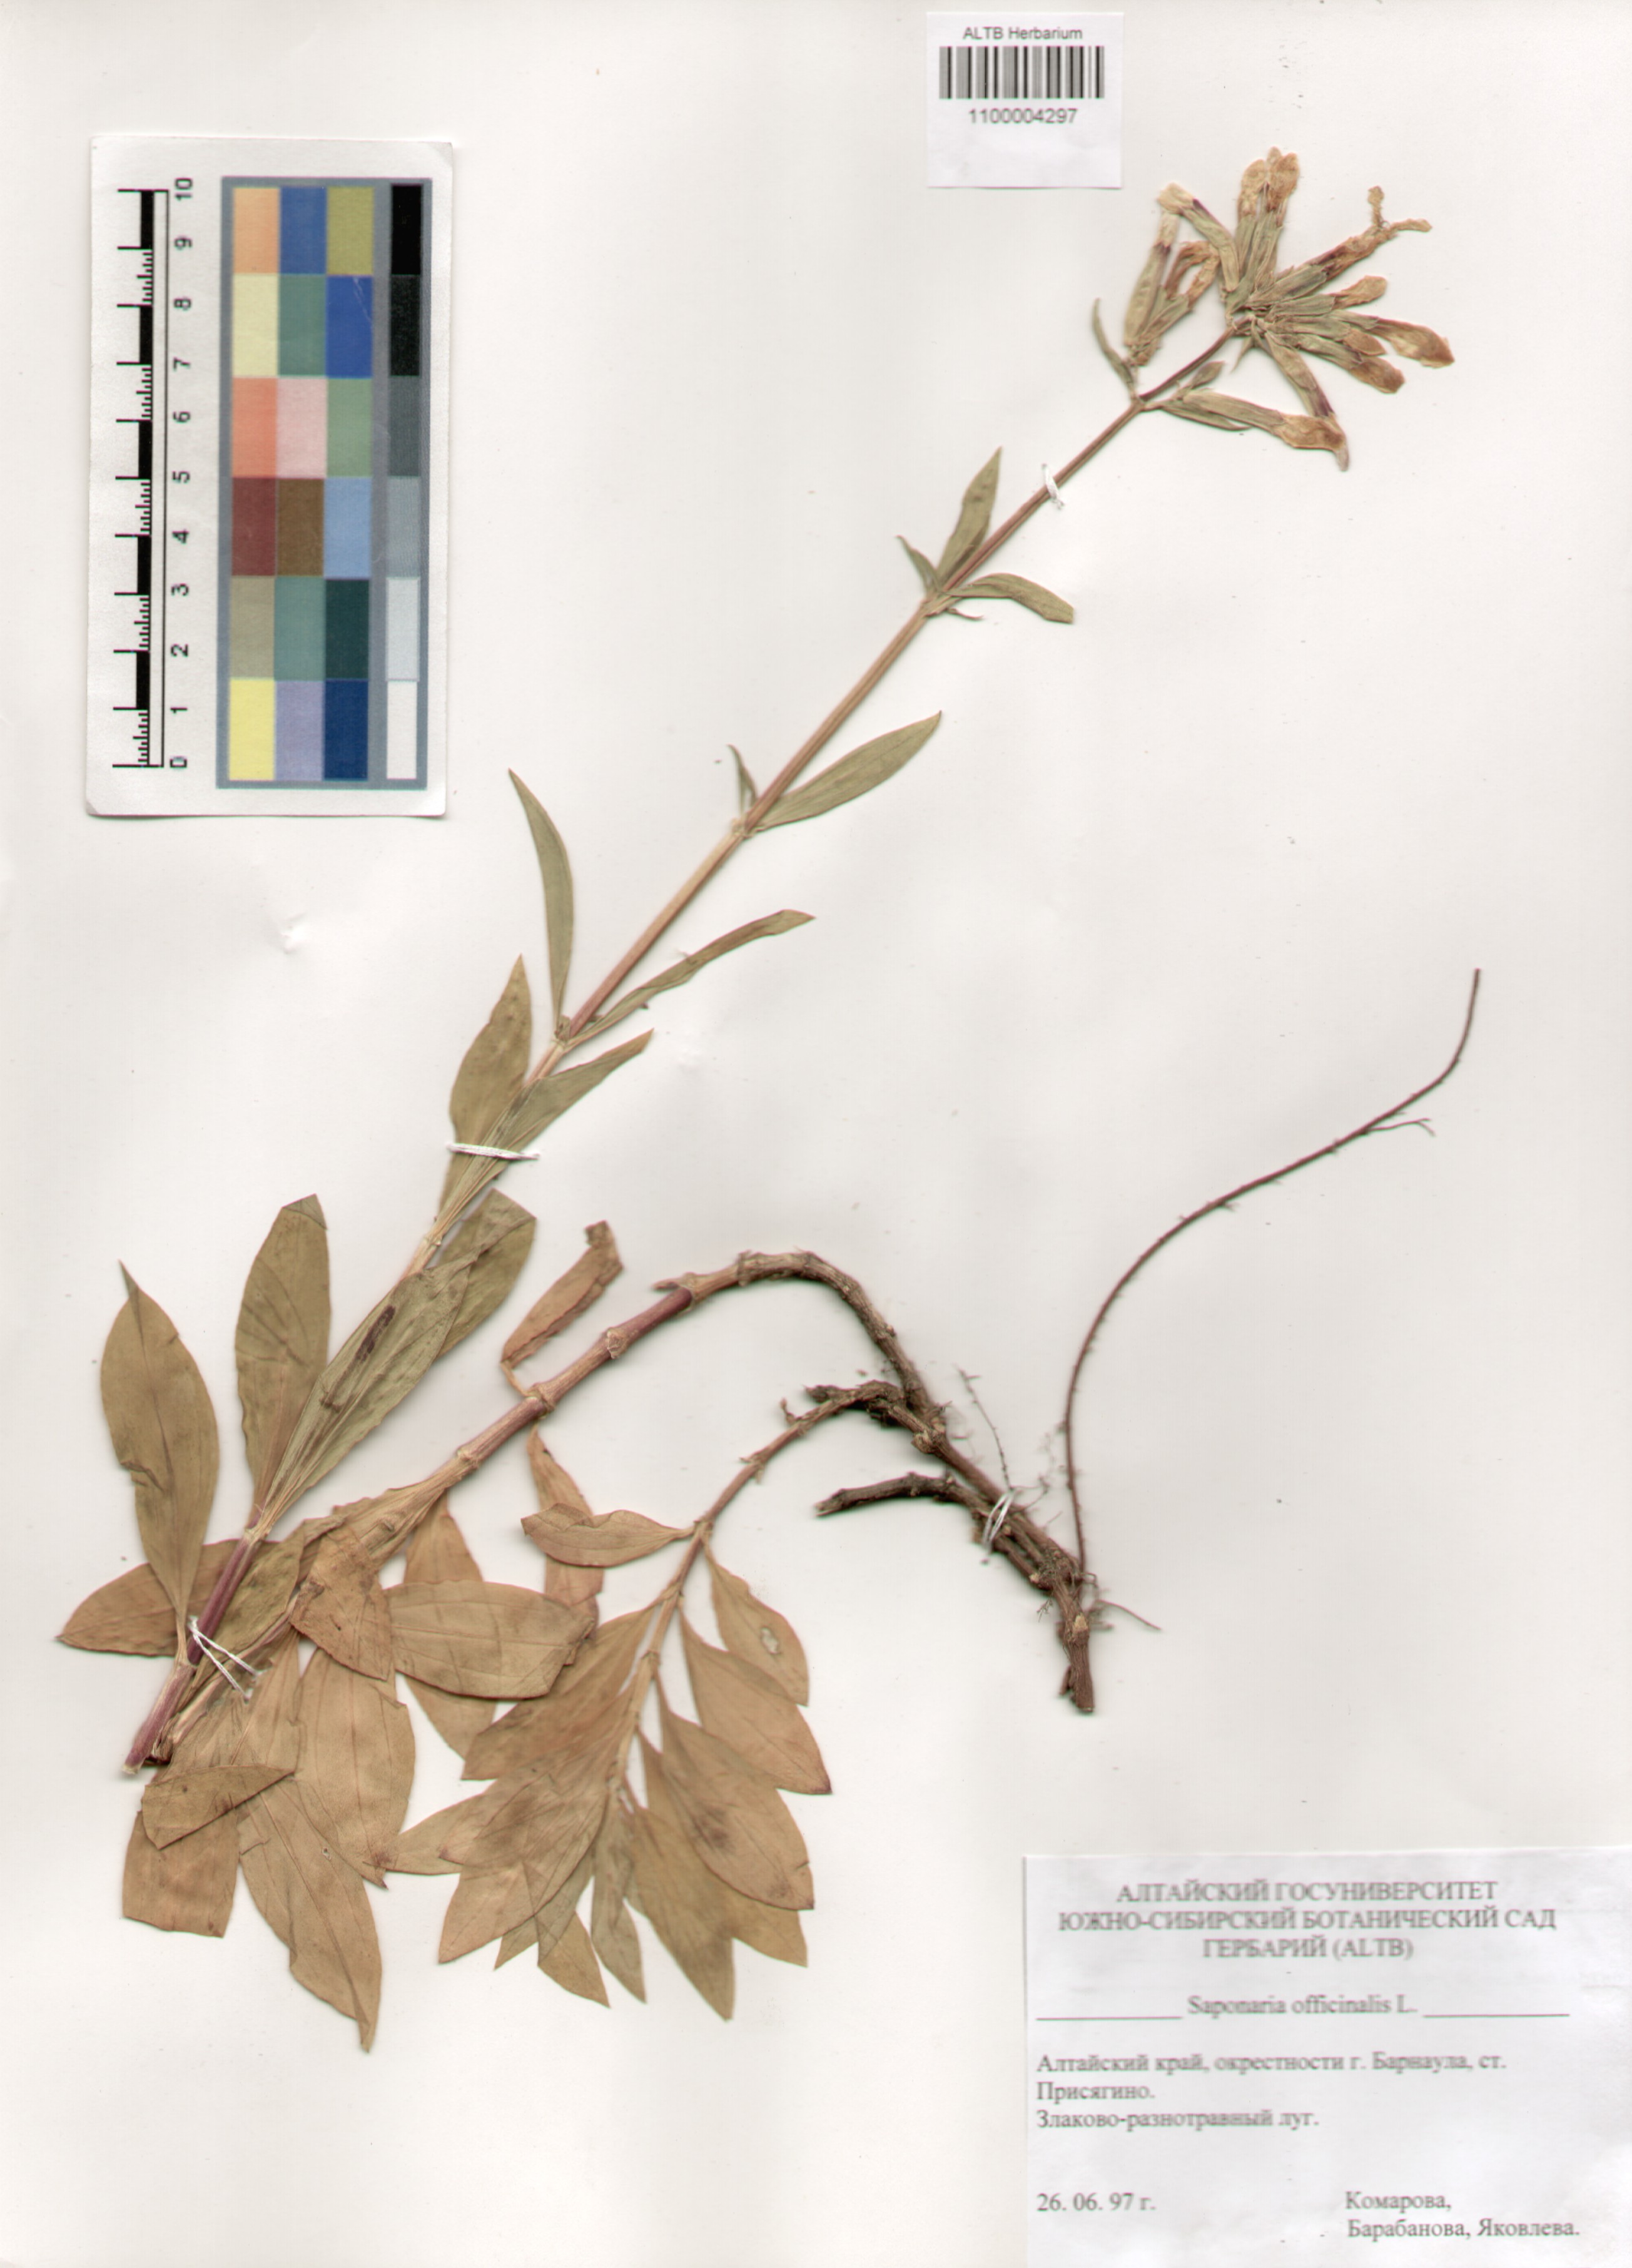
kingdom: Plantae
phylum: Tracheophyta
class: Magnoliopsida
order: Caryophyllales
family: Caryophyllaceae
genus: Saponaria
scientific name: Saponaria officinalis
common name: Soapwort
